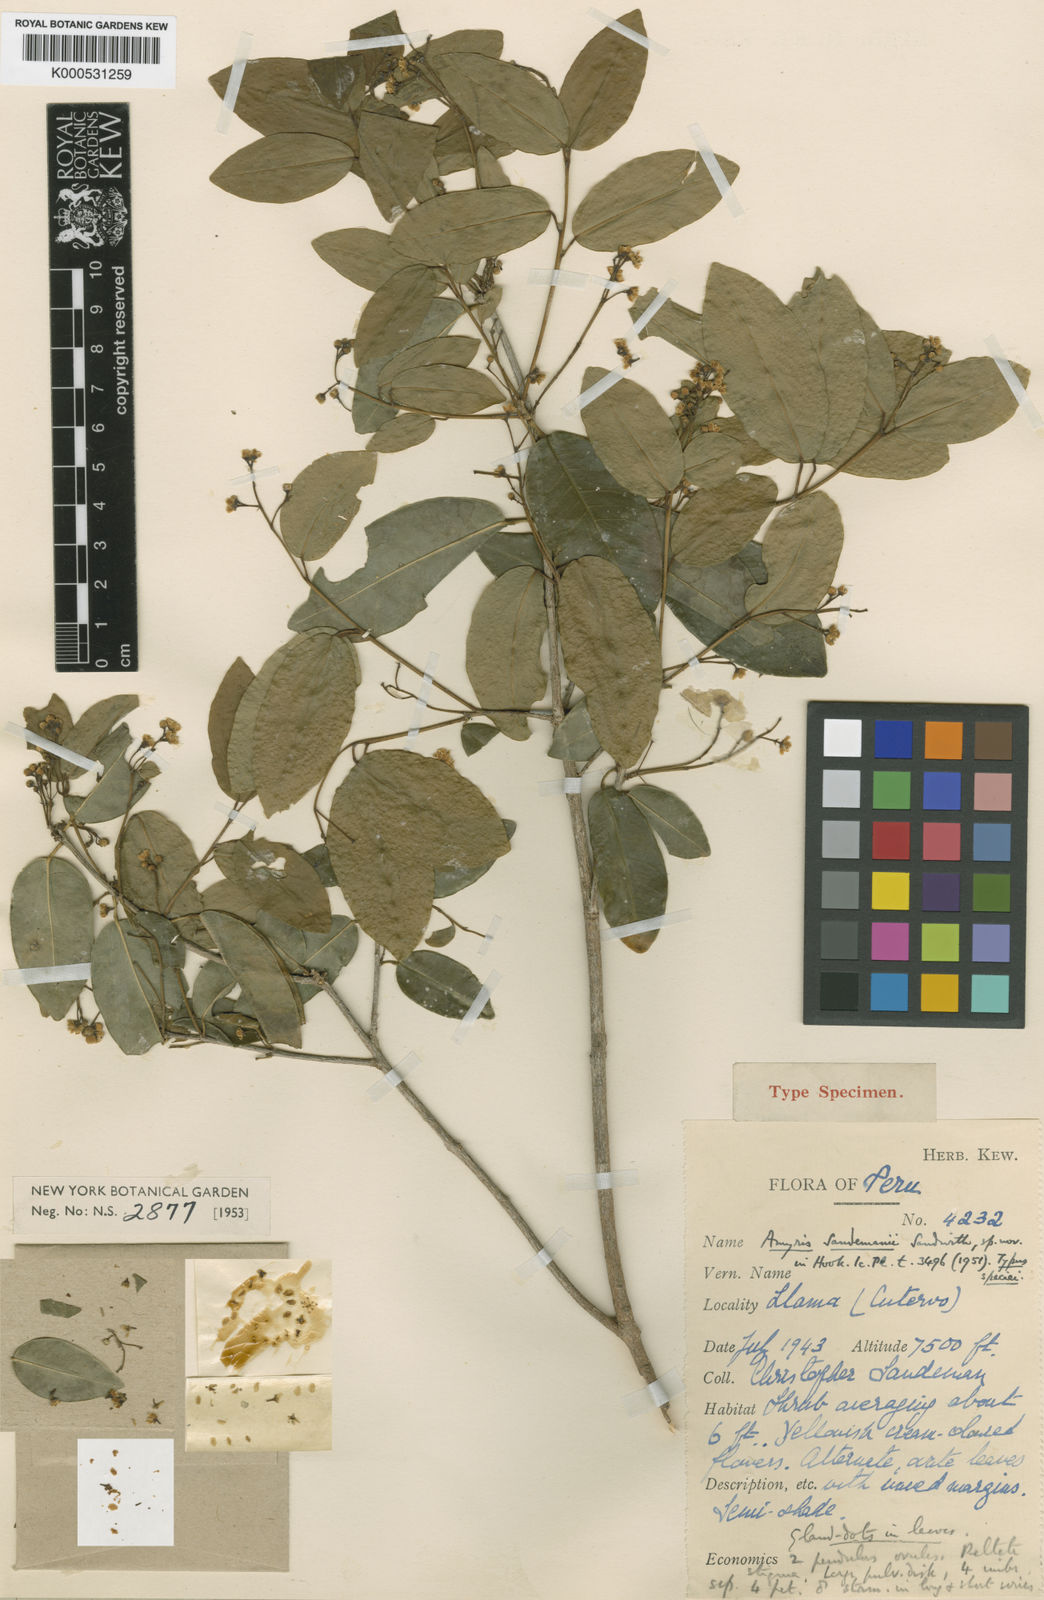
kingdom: Plantae
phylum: Tracheophyta
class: Magnoliopsida
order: Sapindales
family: Rutaceae
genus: Amyris
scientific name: Amyris sandemanii
